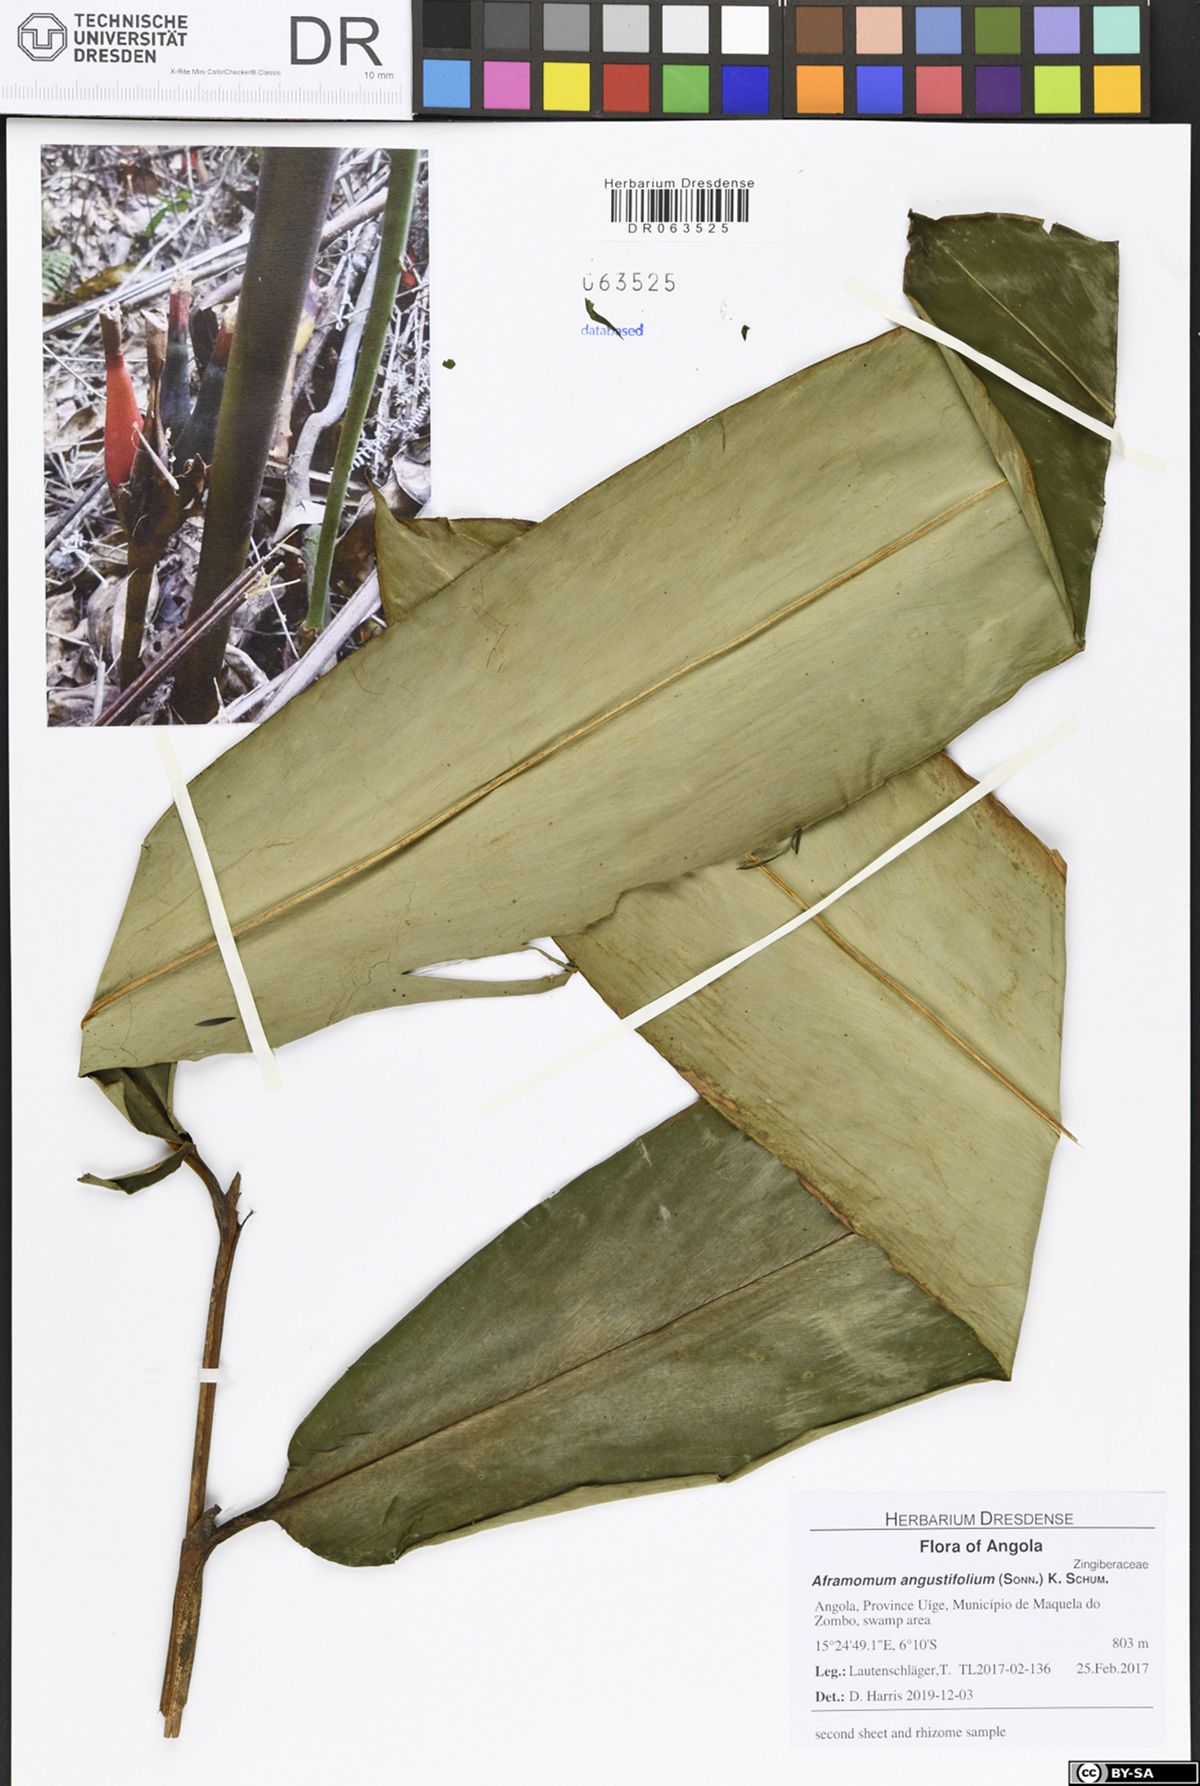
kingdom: Plantae
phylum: Tracheophyta
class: Liliopsida
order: Zingiberales
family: Zingiberaceae
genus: Aframomum
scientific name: Aframomum angustifolium
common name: Guinea grains
